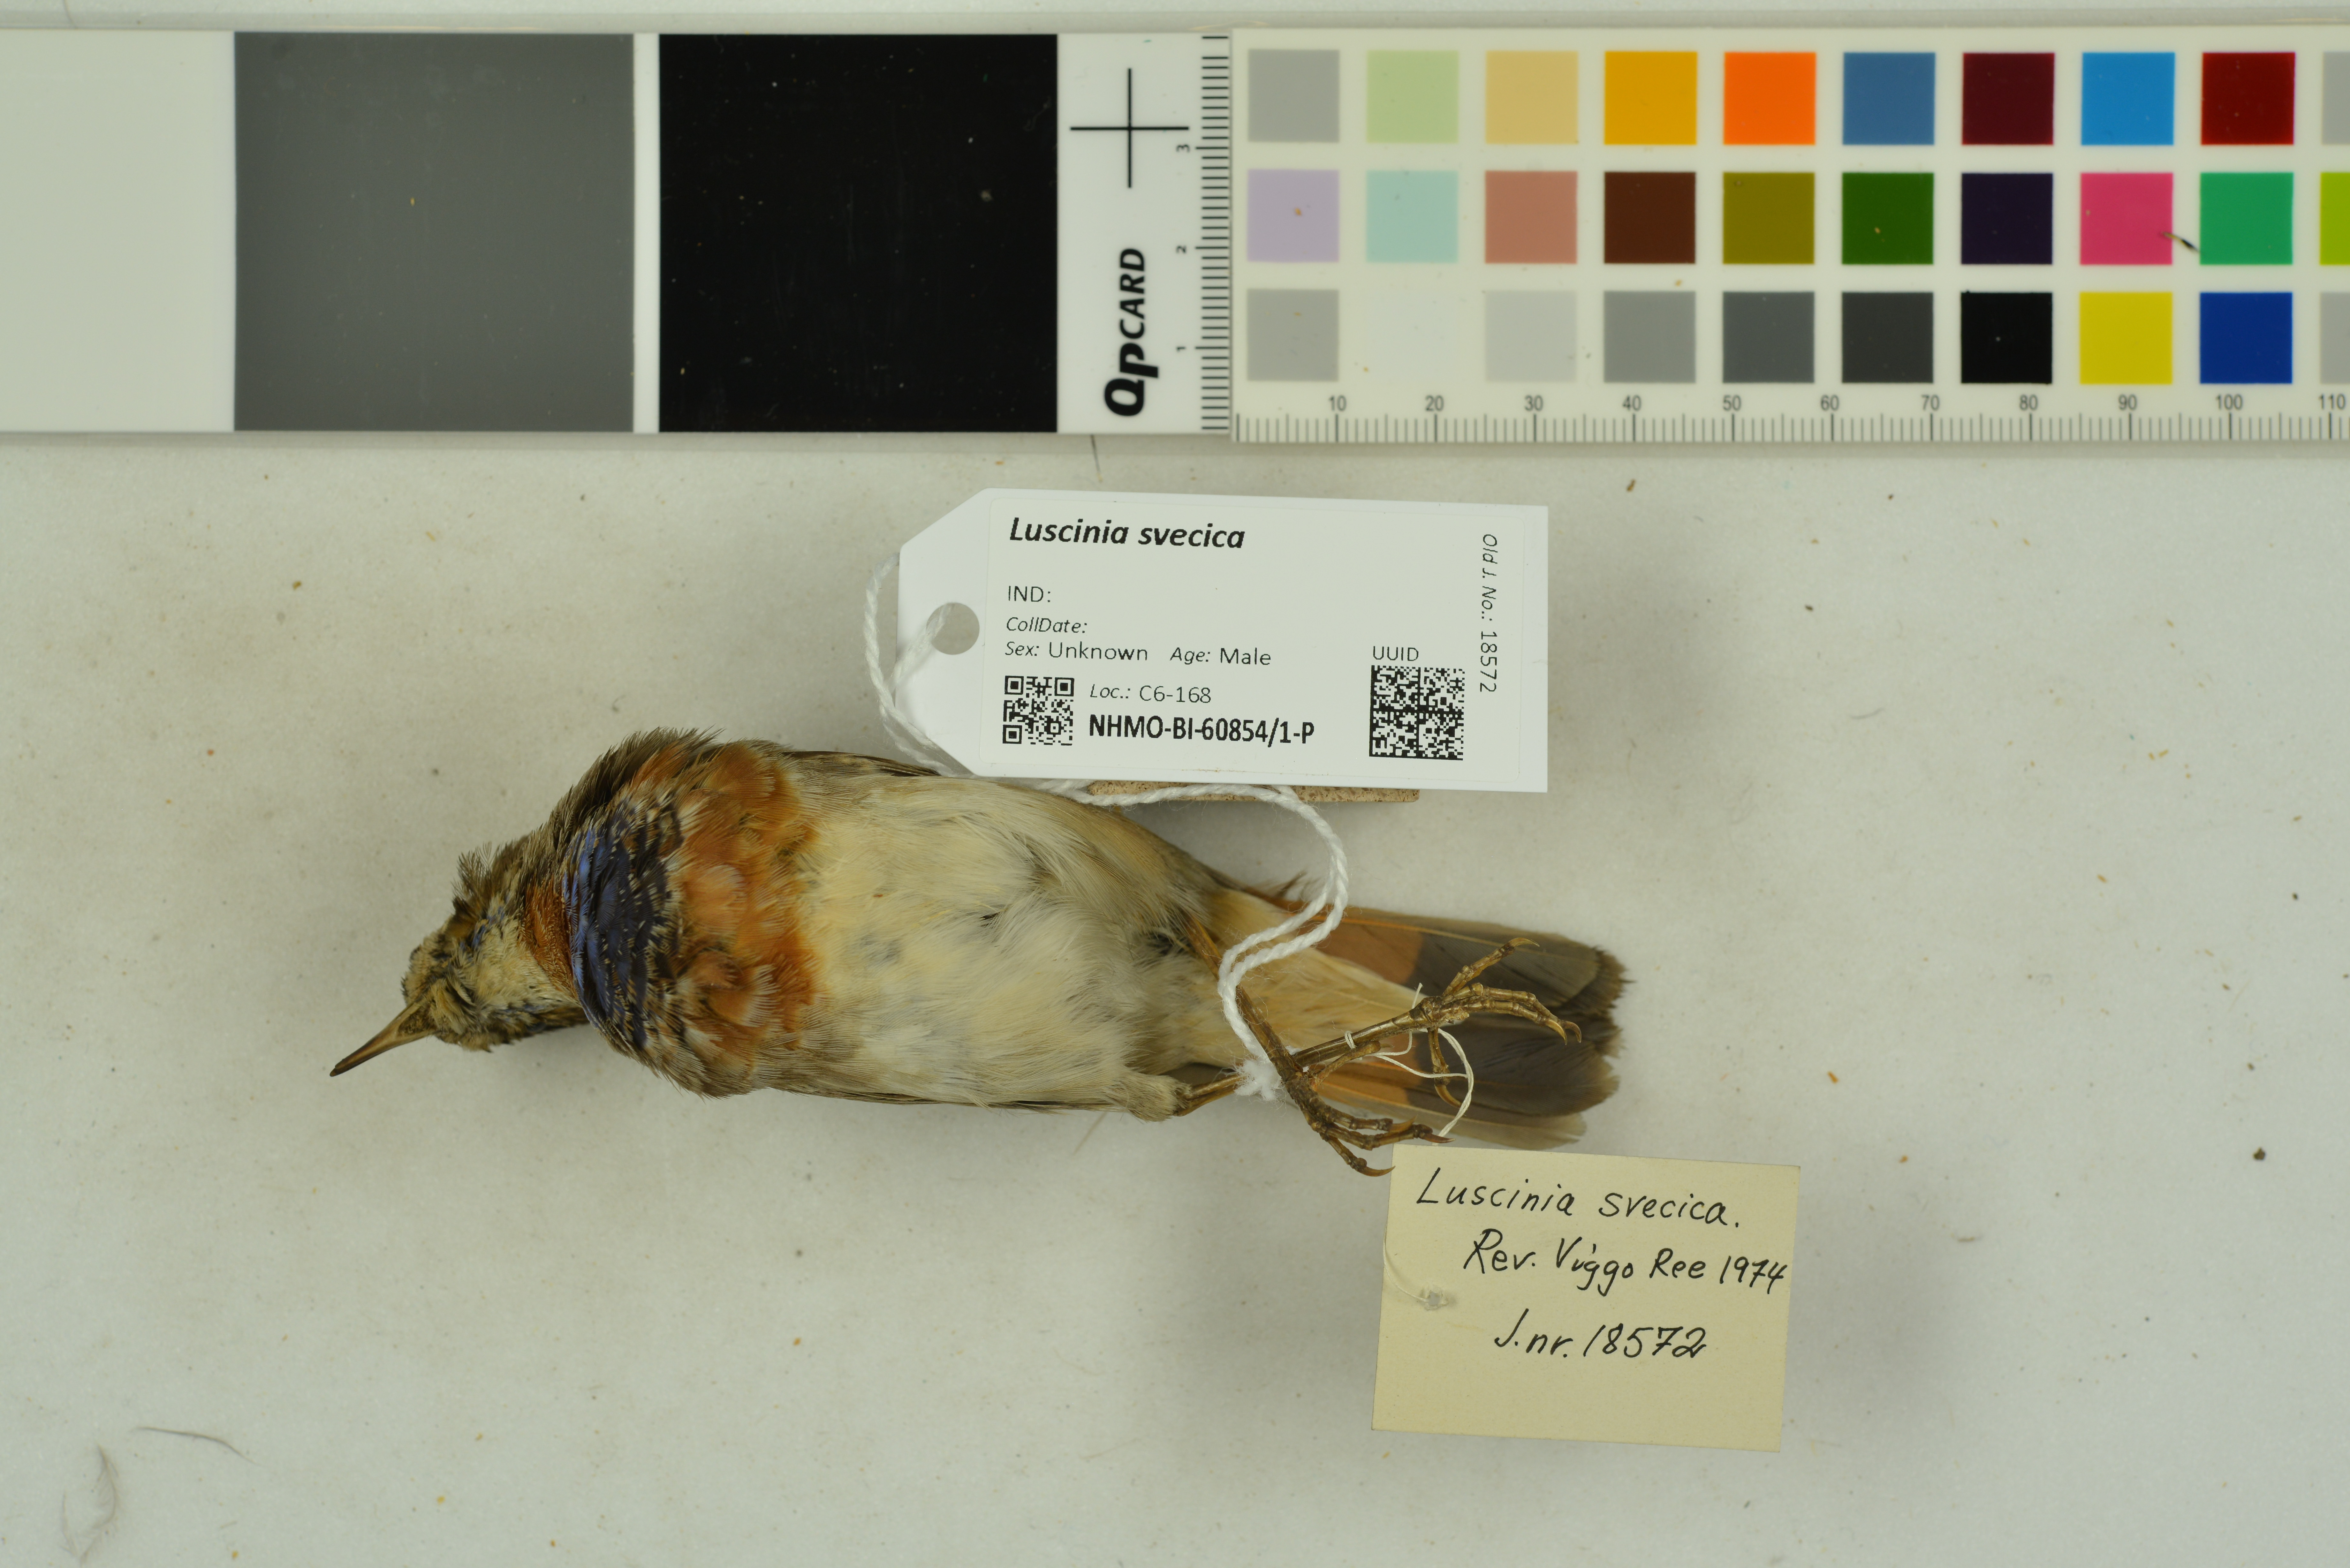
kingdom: Animalia
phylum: Chordata
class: Aves
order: Passeriformes
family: Muscicapidae
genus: Luscinia
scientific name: Luscinia svecica
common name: Bluethroat
